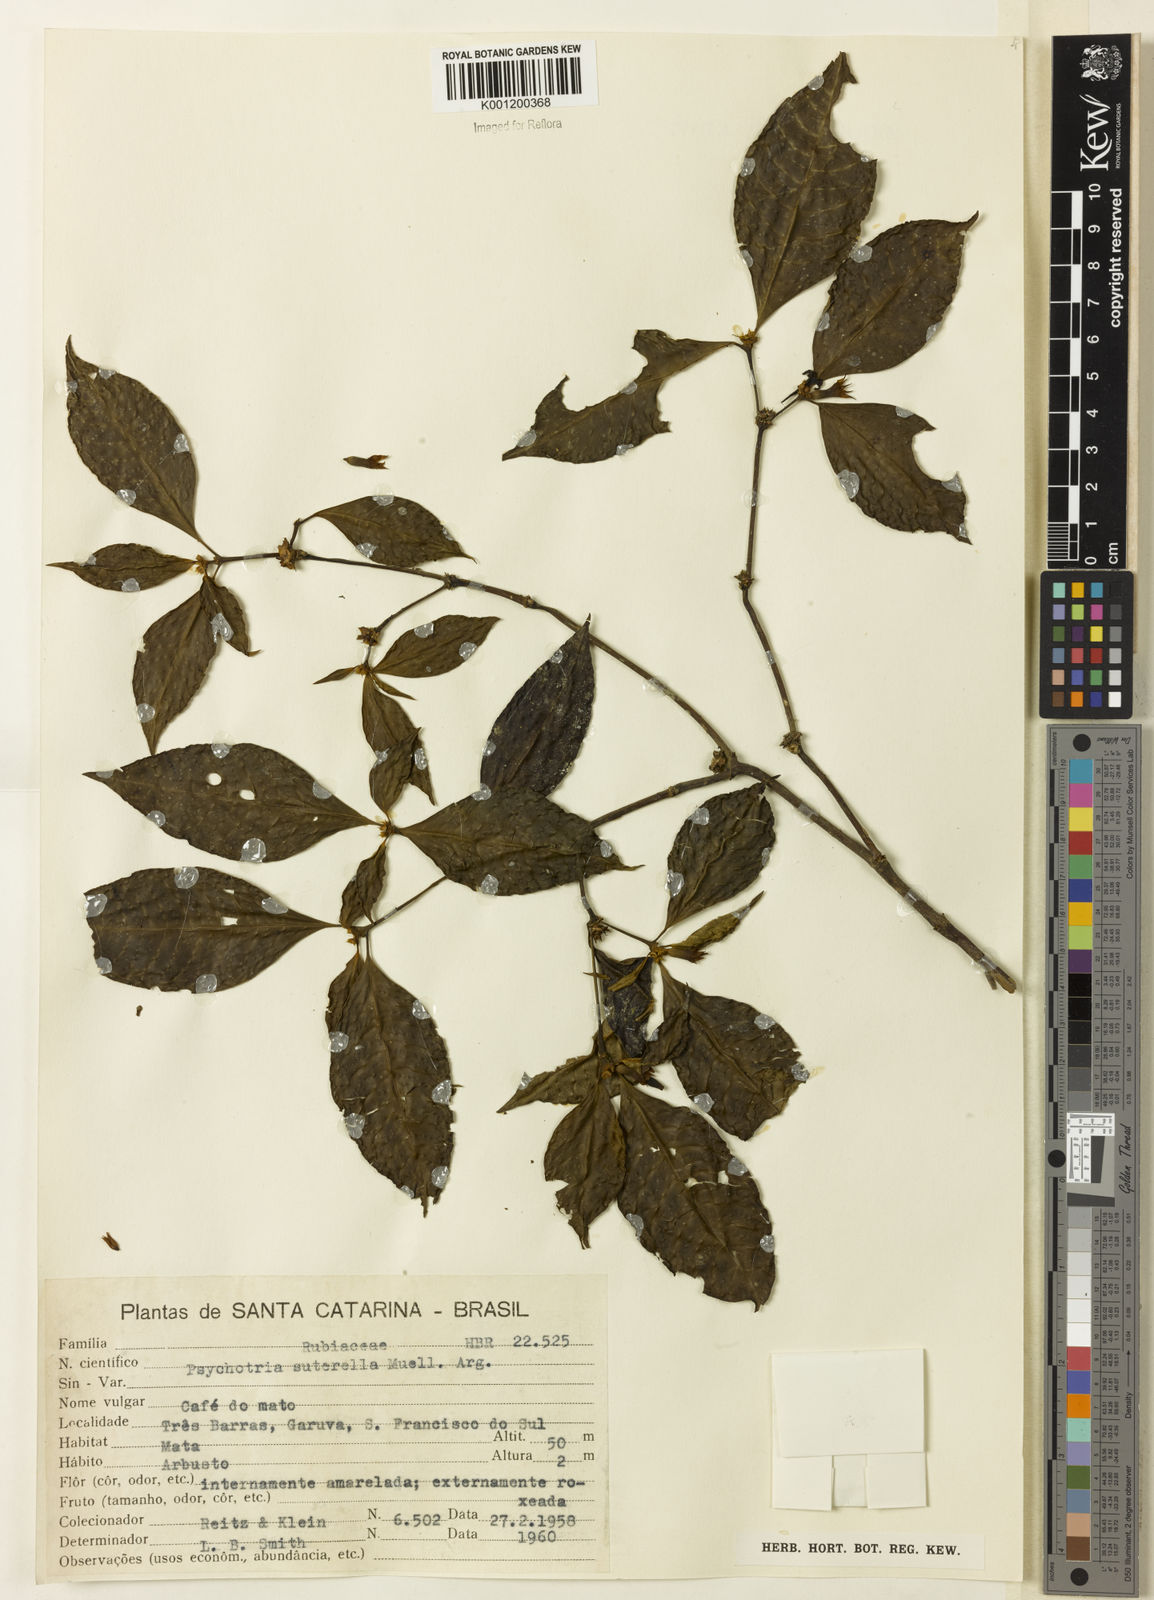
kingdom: Plantae
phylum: Tracheophyta
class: Magnoliopsida
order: Gentianales
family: Rubiaceae
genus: Psychotria
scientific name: Psychotria
